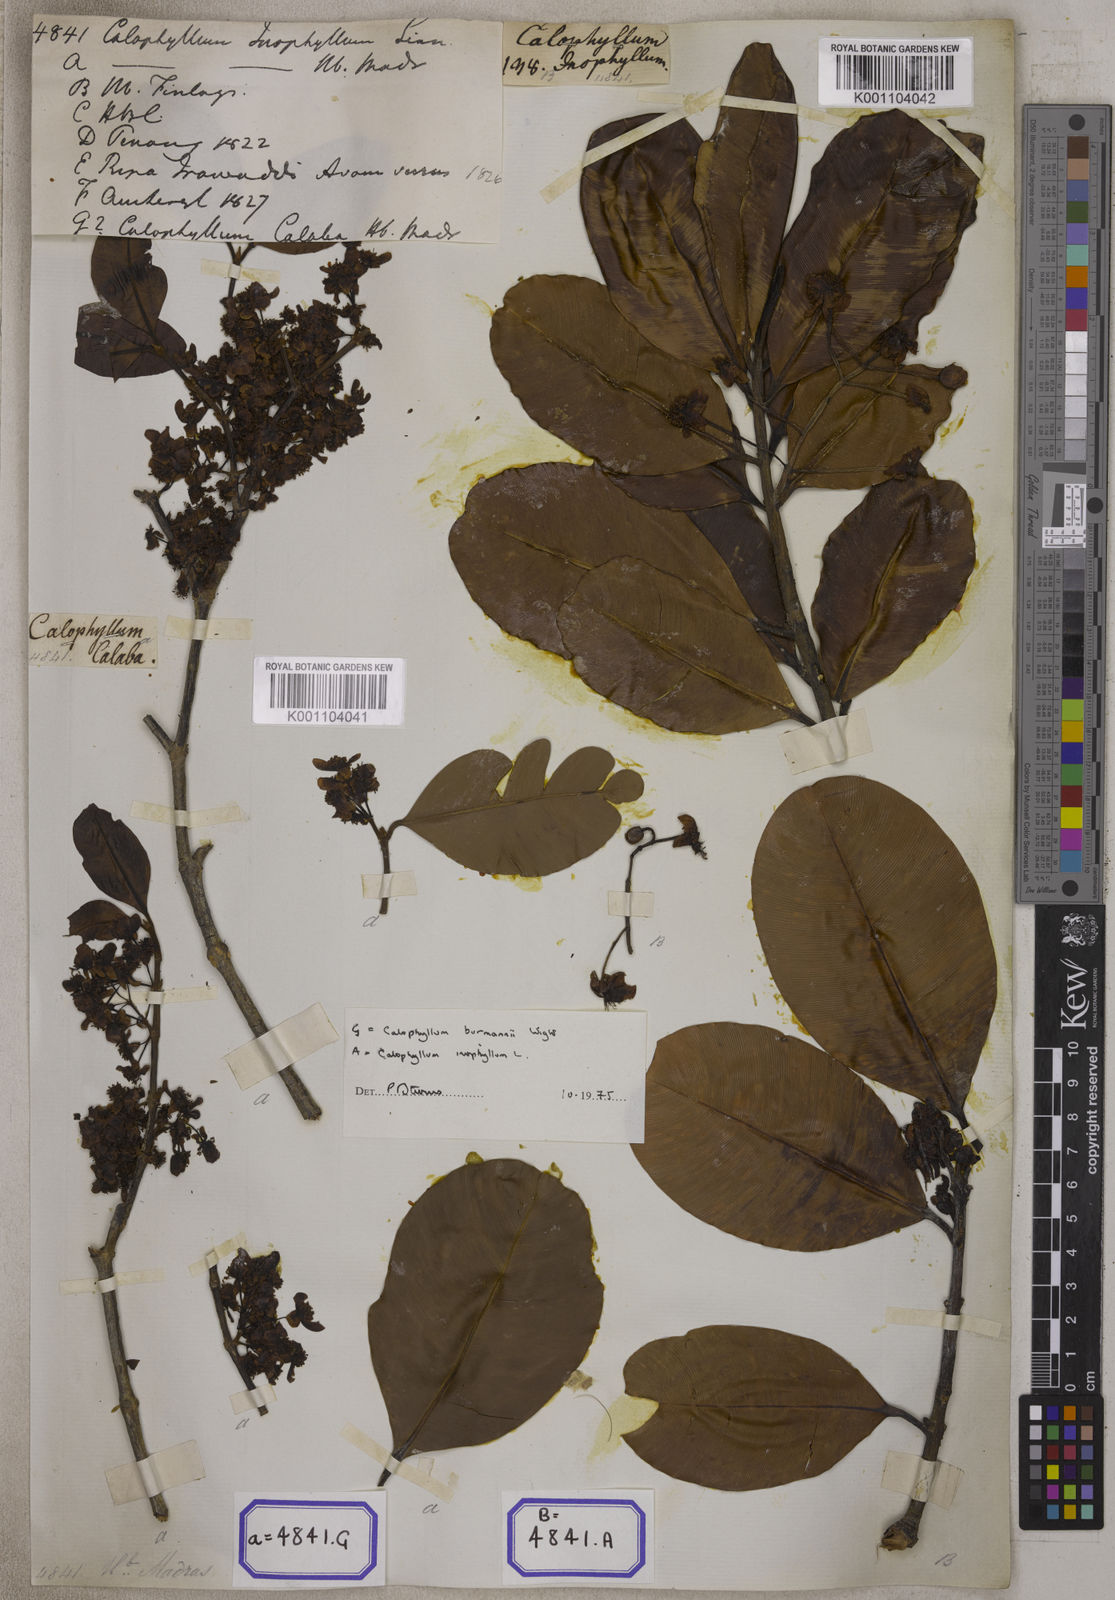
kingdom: Plantae
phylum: Tracheophyta
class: Magnoliopsida
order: Malpighiales
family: Calophyllaceae
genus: Calophyllum
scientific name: Calophyllum inophyllum
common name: Alexandrian laurel
